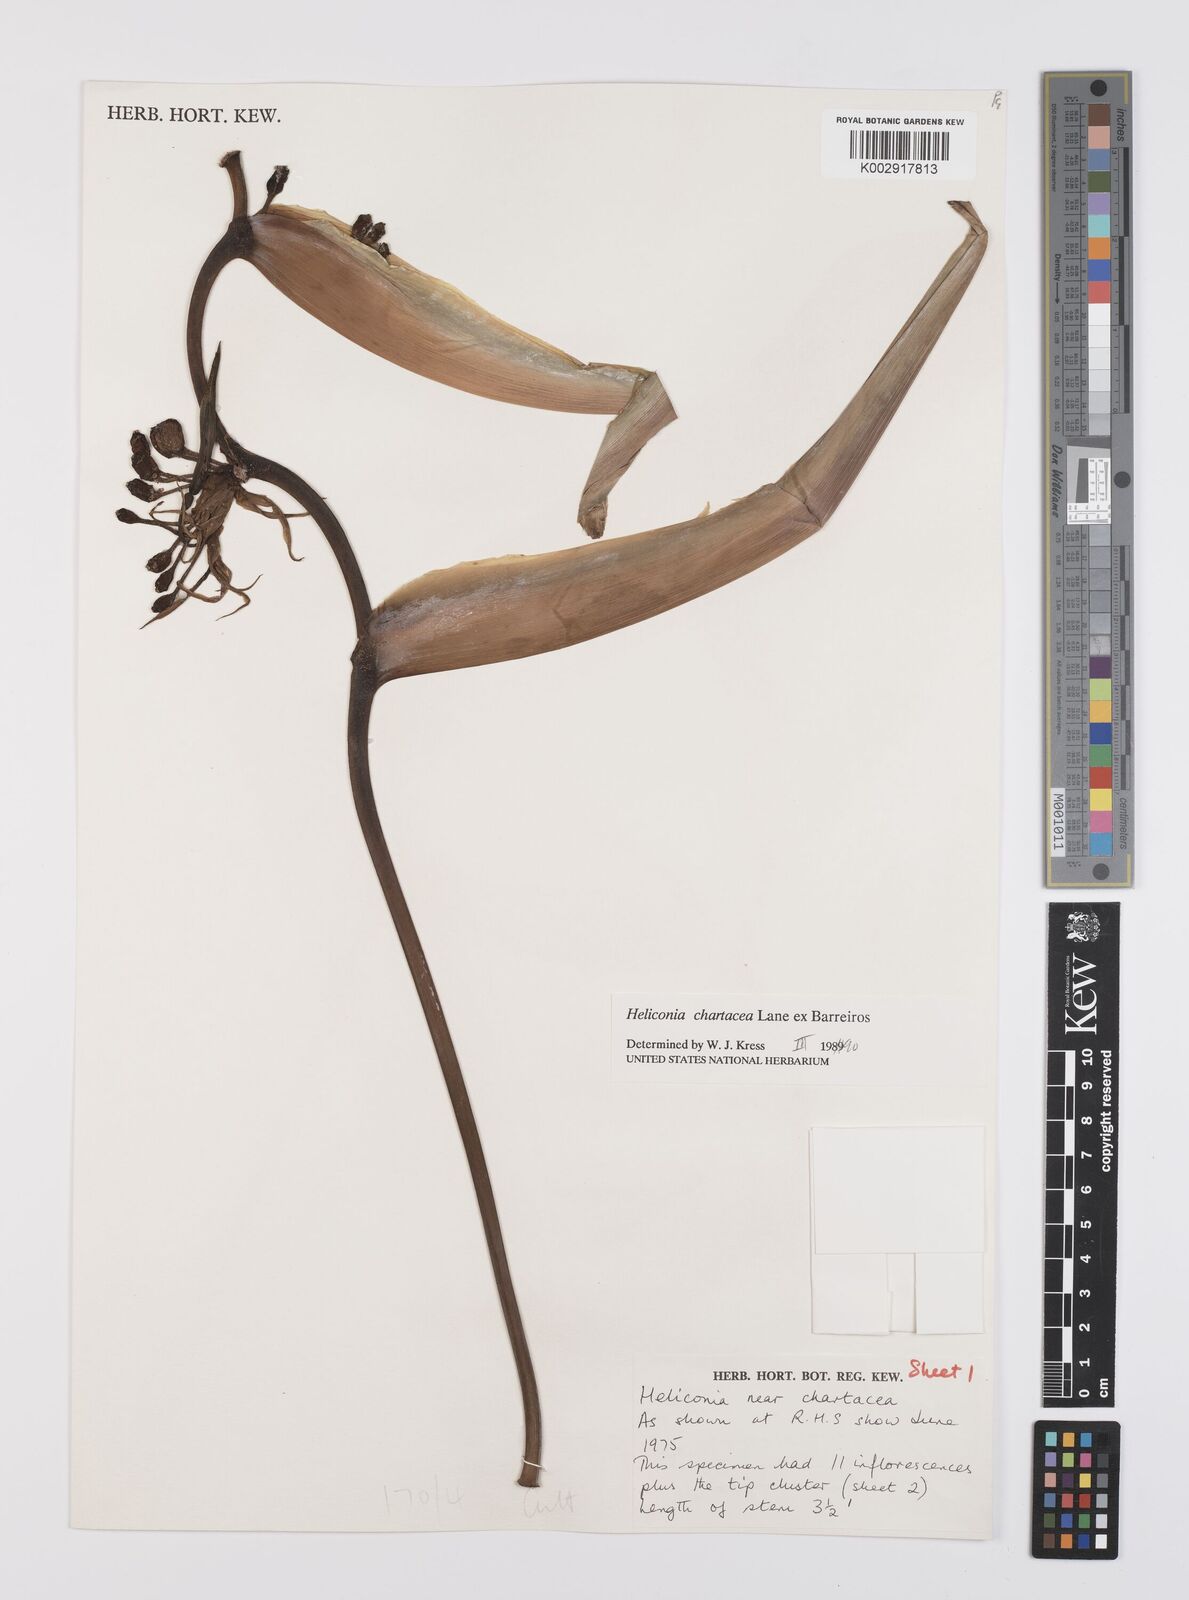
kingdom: Plantae
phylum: Tracheophyta
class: Liliopsida
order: Zingiberales
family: Heliconiaceae
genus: Heliconia
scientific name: Heliconia chartacea
